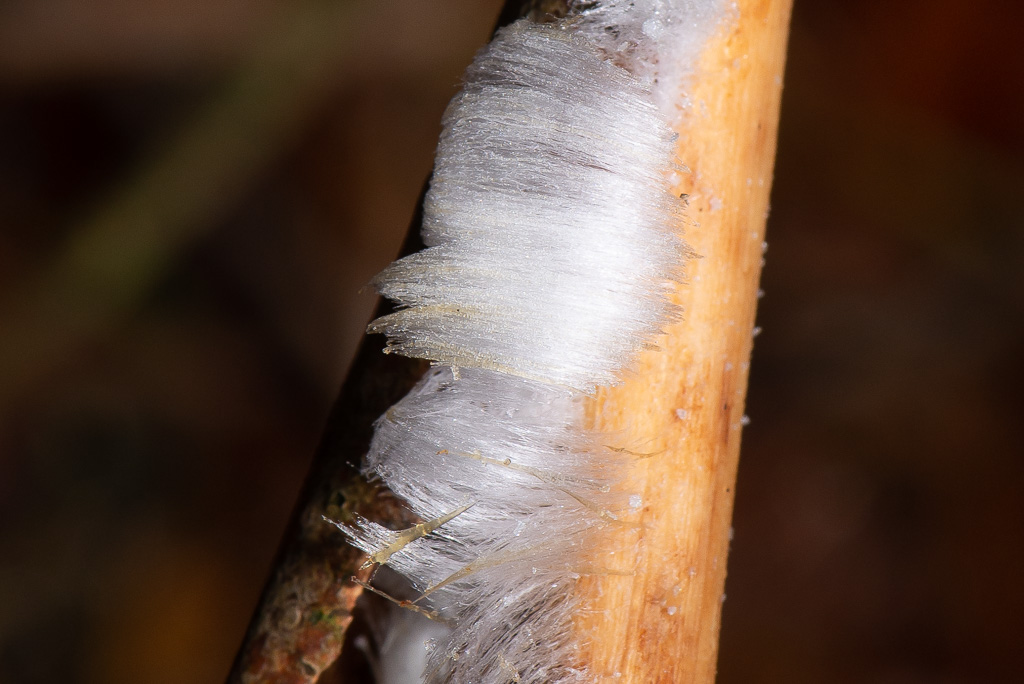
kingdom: Fungi
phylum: Basidiomycota
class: Tremellomycetes
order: Tremellales
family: Exidiaceae
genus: Exidiopsis
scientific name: Exidiopsis effusa
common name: smuk bævrehinde
